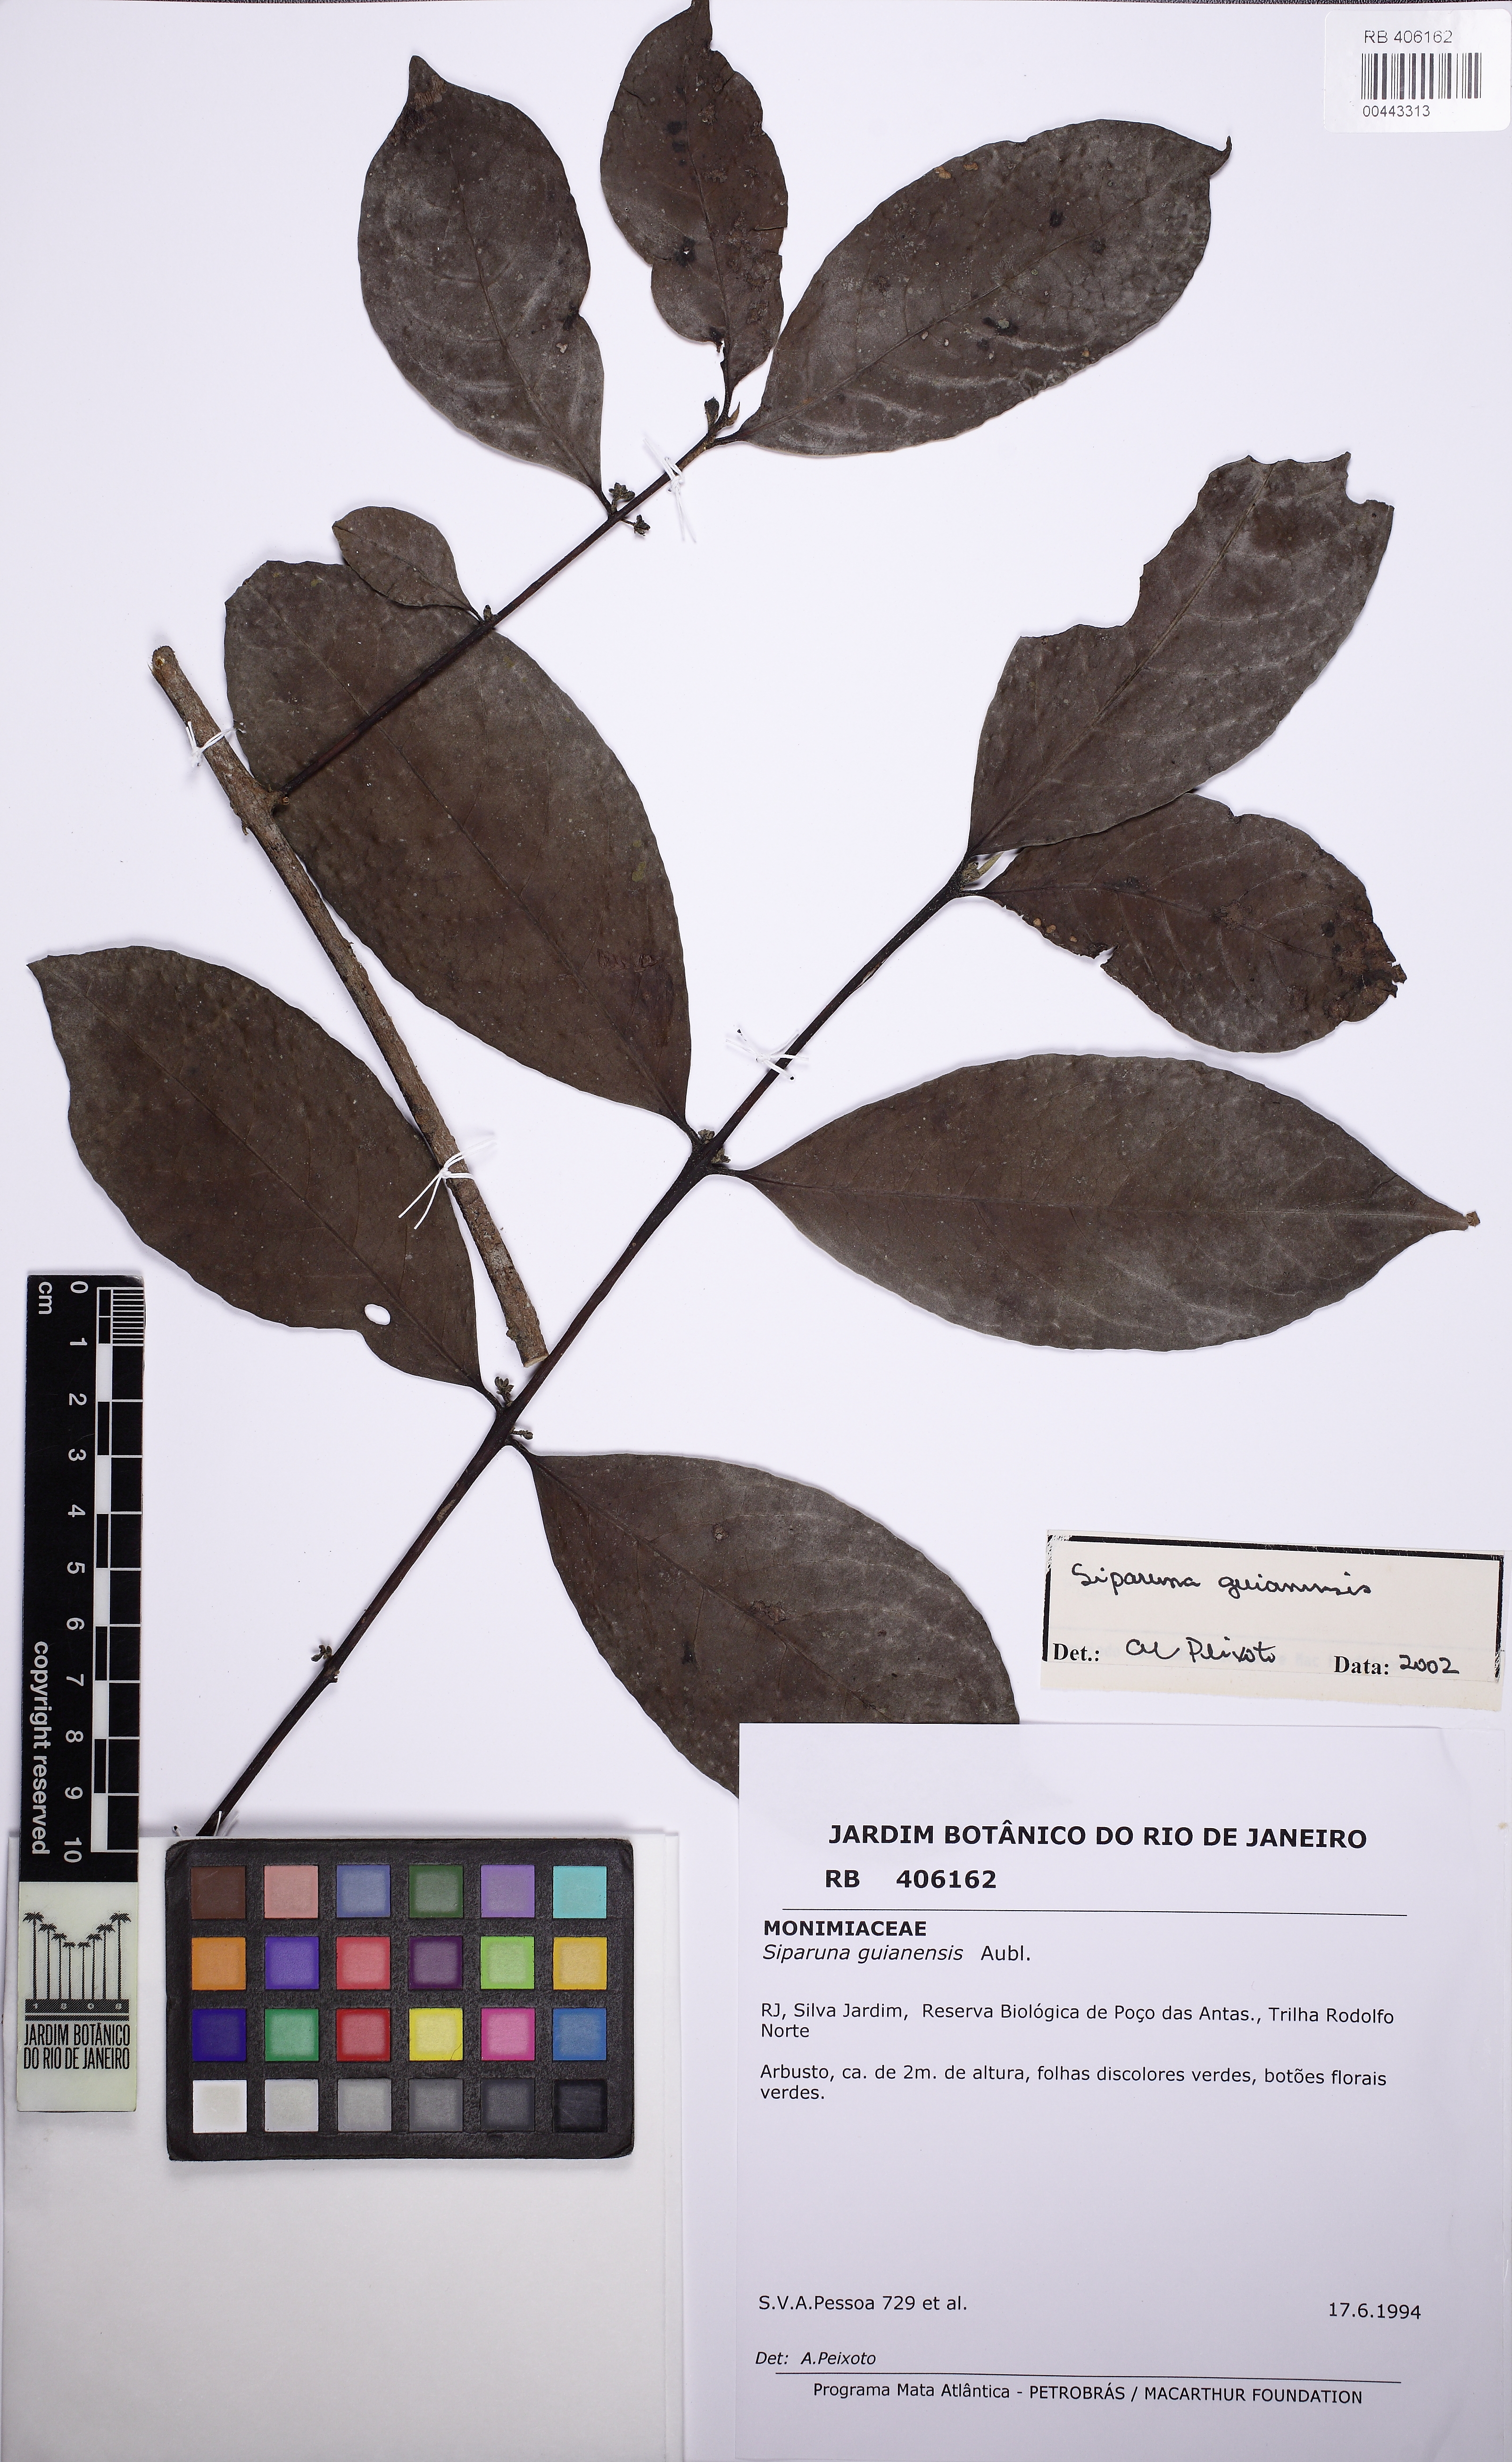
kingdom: Plantae
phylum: Tracheophyta
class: Magnoliopsida
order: Laurales
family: Siparunaceae
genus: Siparuna
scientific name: Siparuna guianensis
